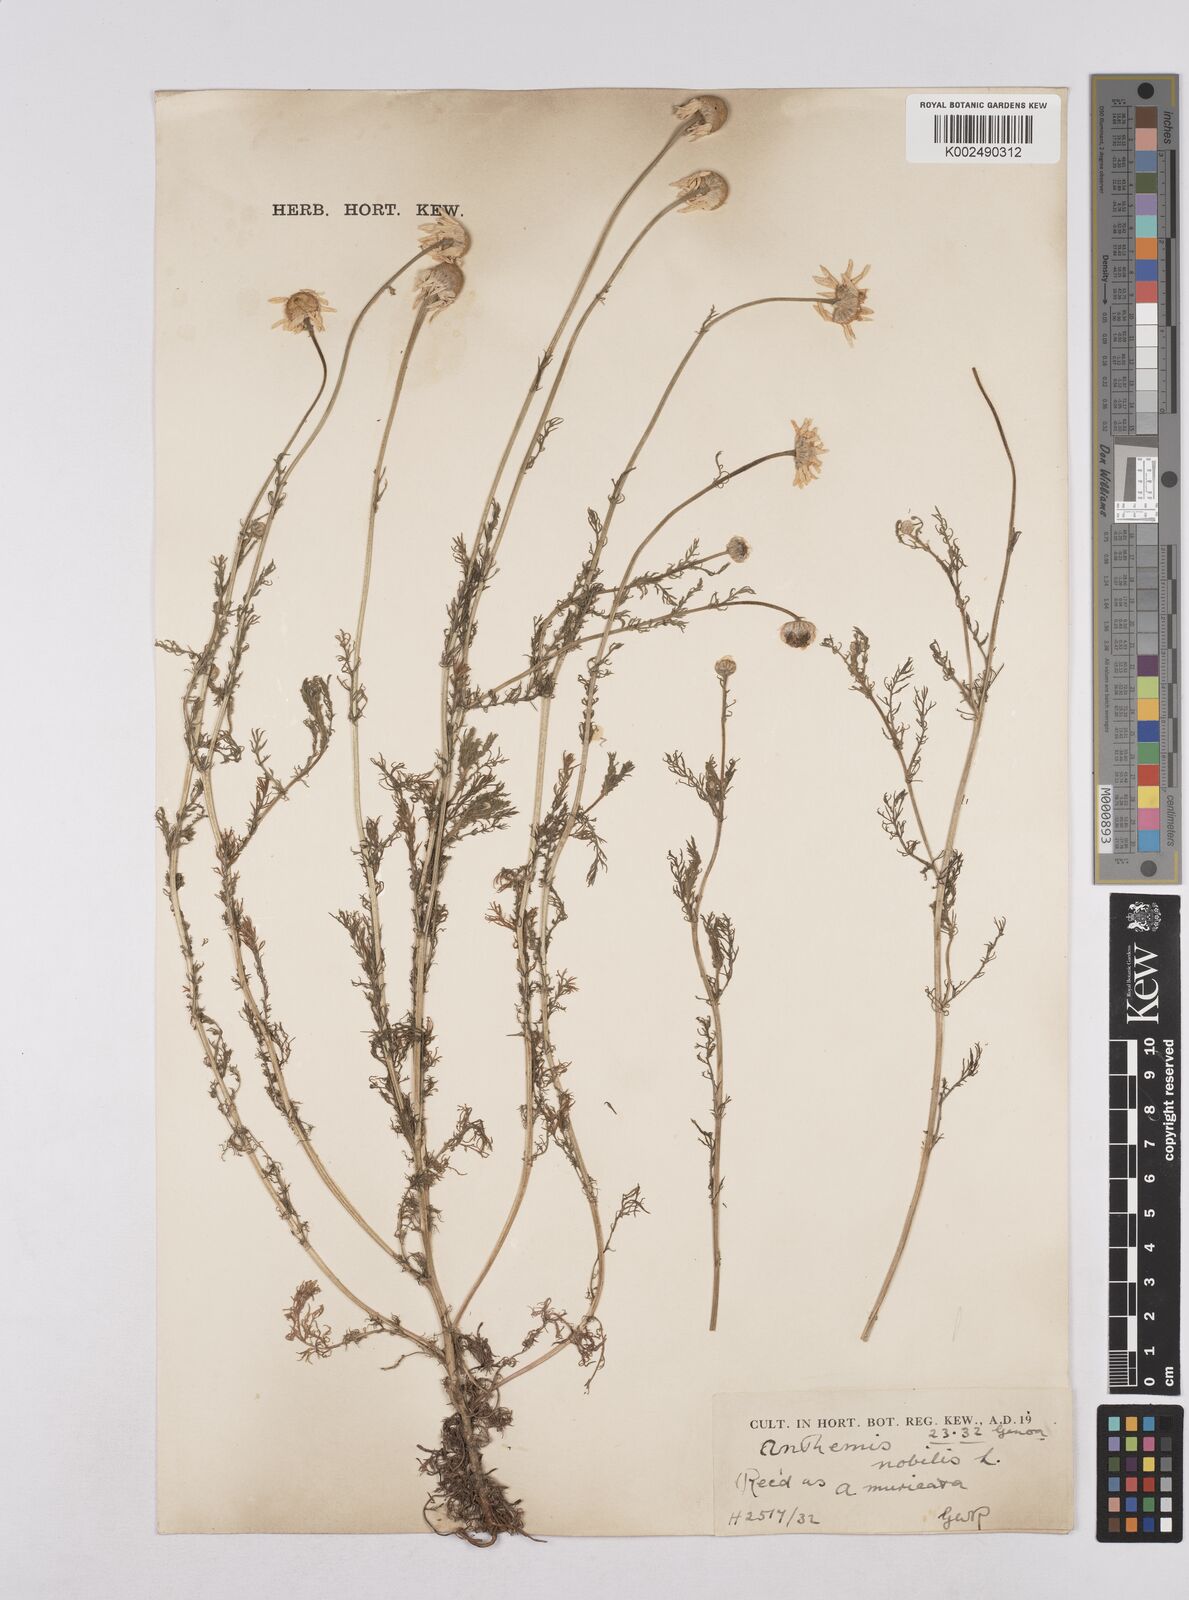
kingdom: Plantae
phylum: Tracheophyta
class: Magnoliopsida
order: Asterales
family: Asteraceae
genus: Chamaemelum
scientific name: Chamaemelum nobile
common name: Roman chamomile
